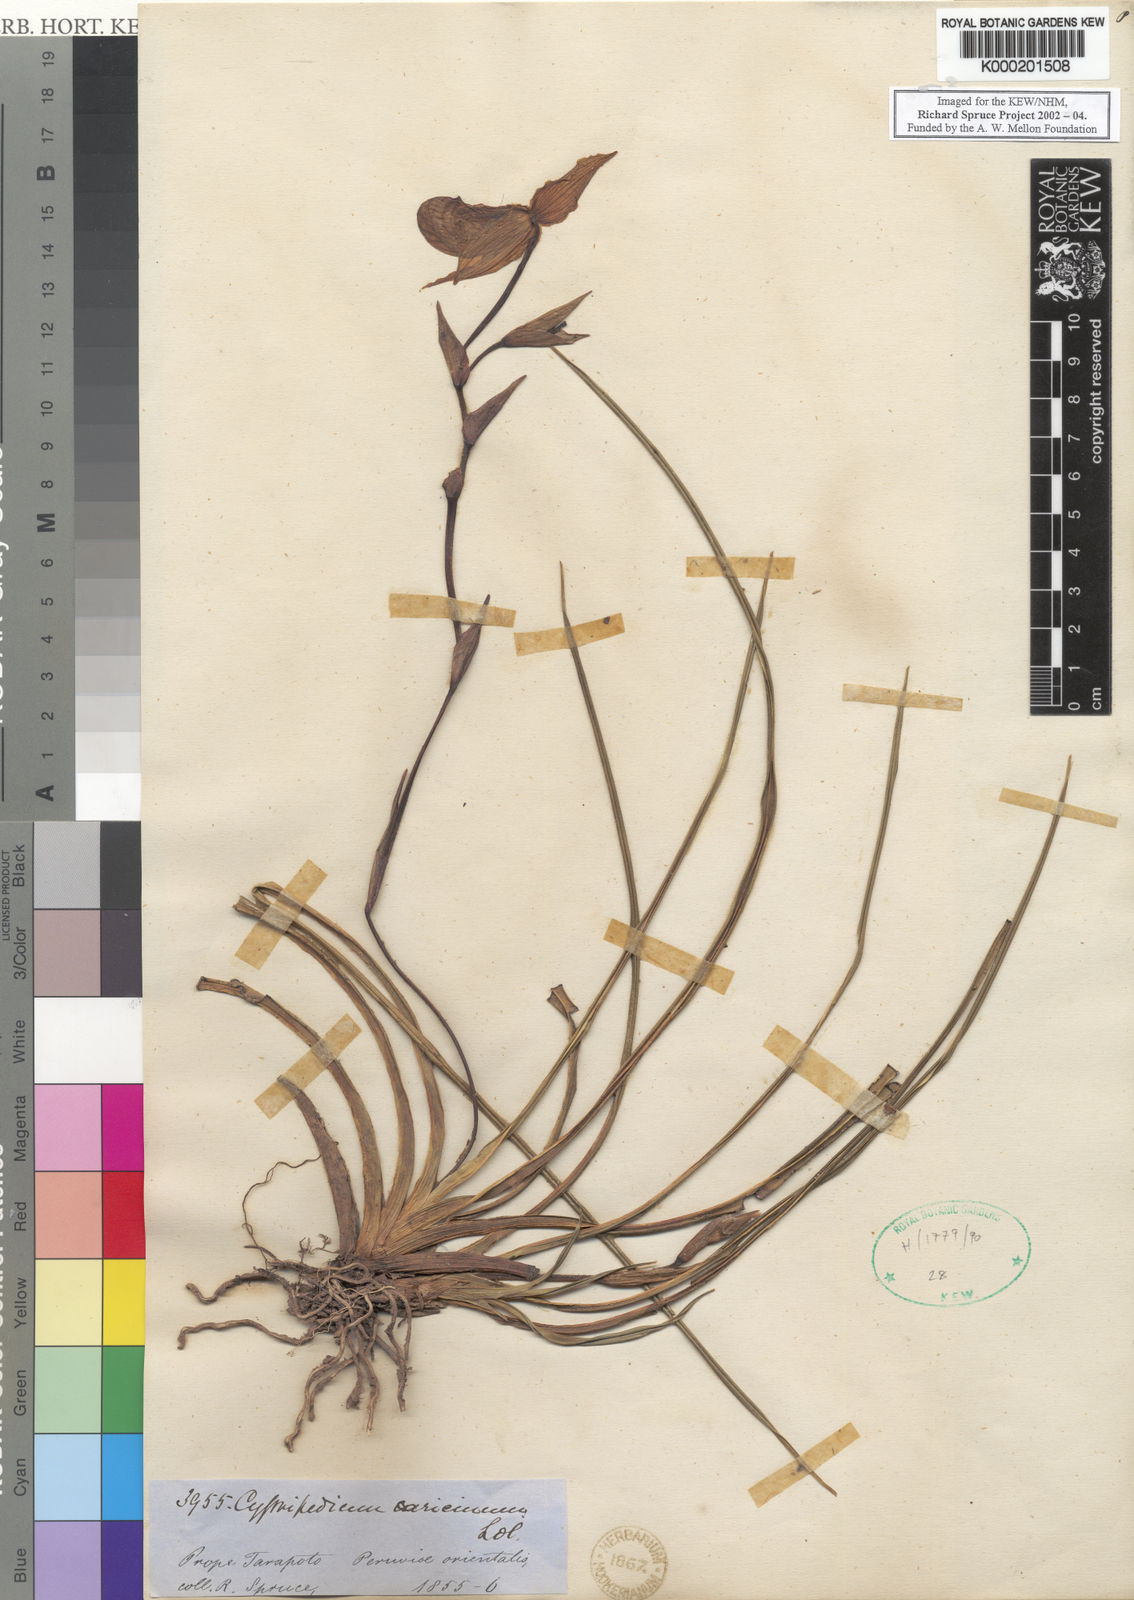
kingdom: Plantae
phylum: Tracheophyta
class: Liliopsida
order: Asparagales
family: Orchidaceae
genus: Phragmipedium
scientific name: Phragmipedium caricinum
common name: Reed grass-like phragmipedium
